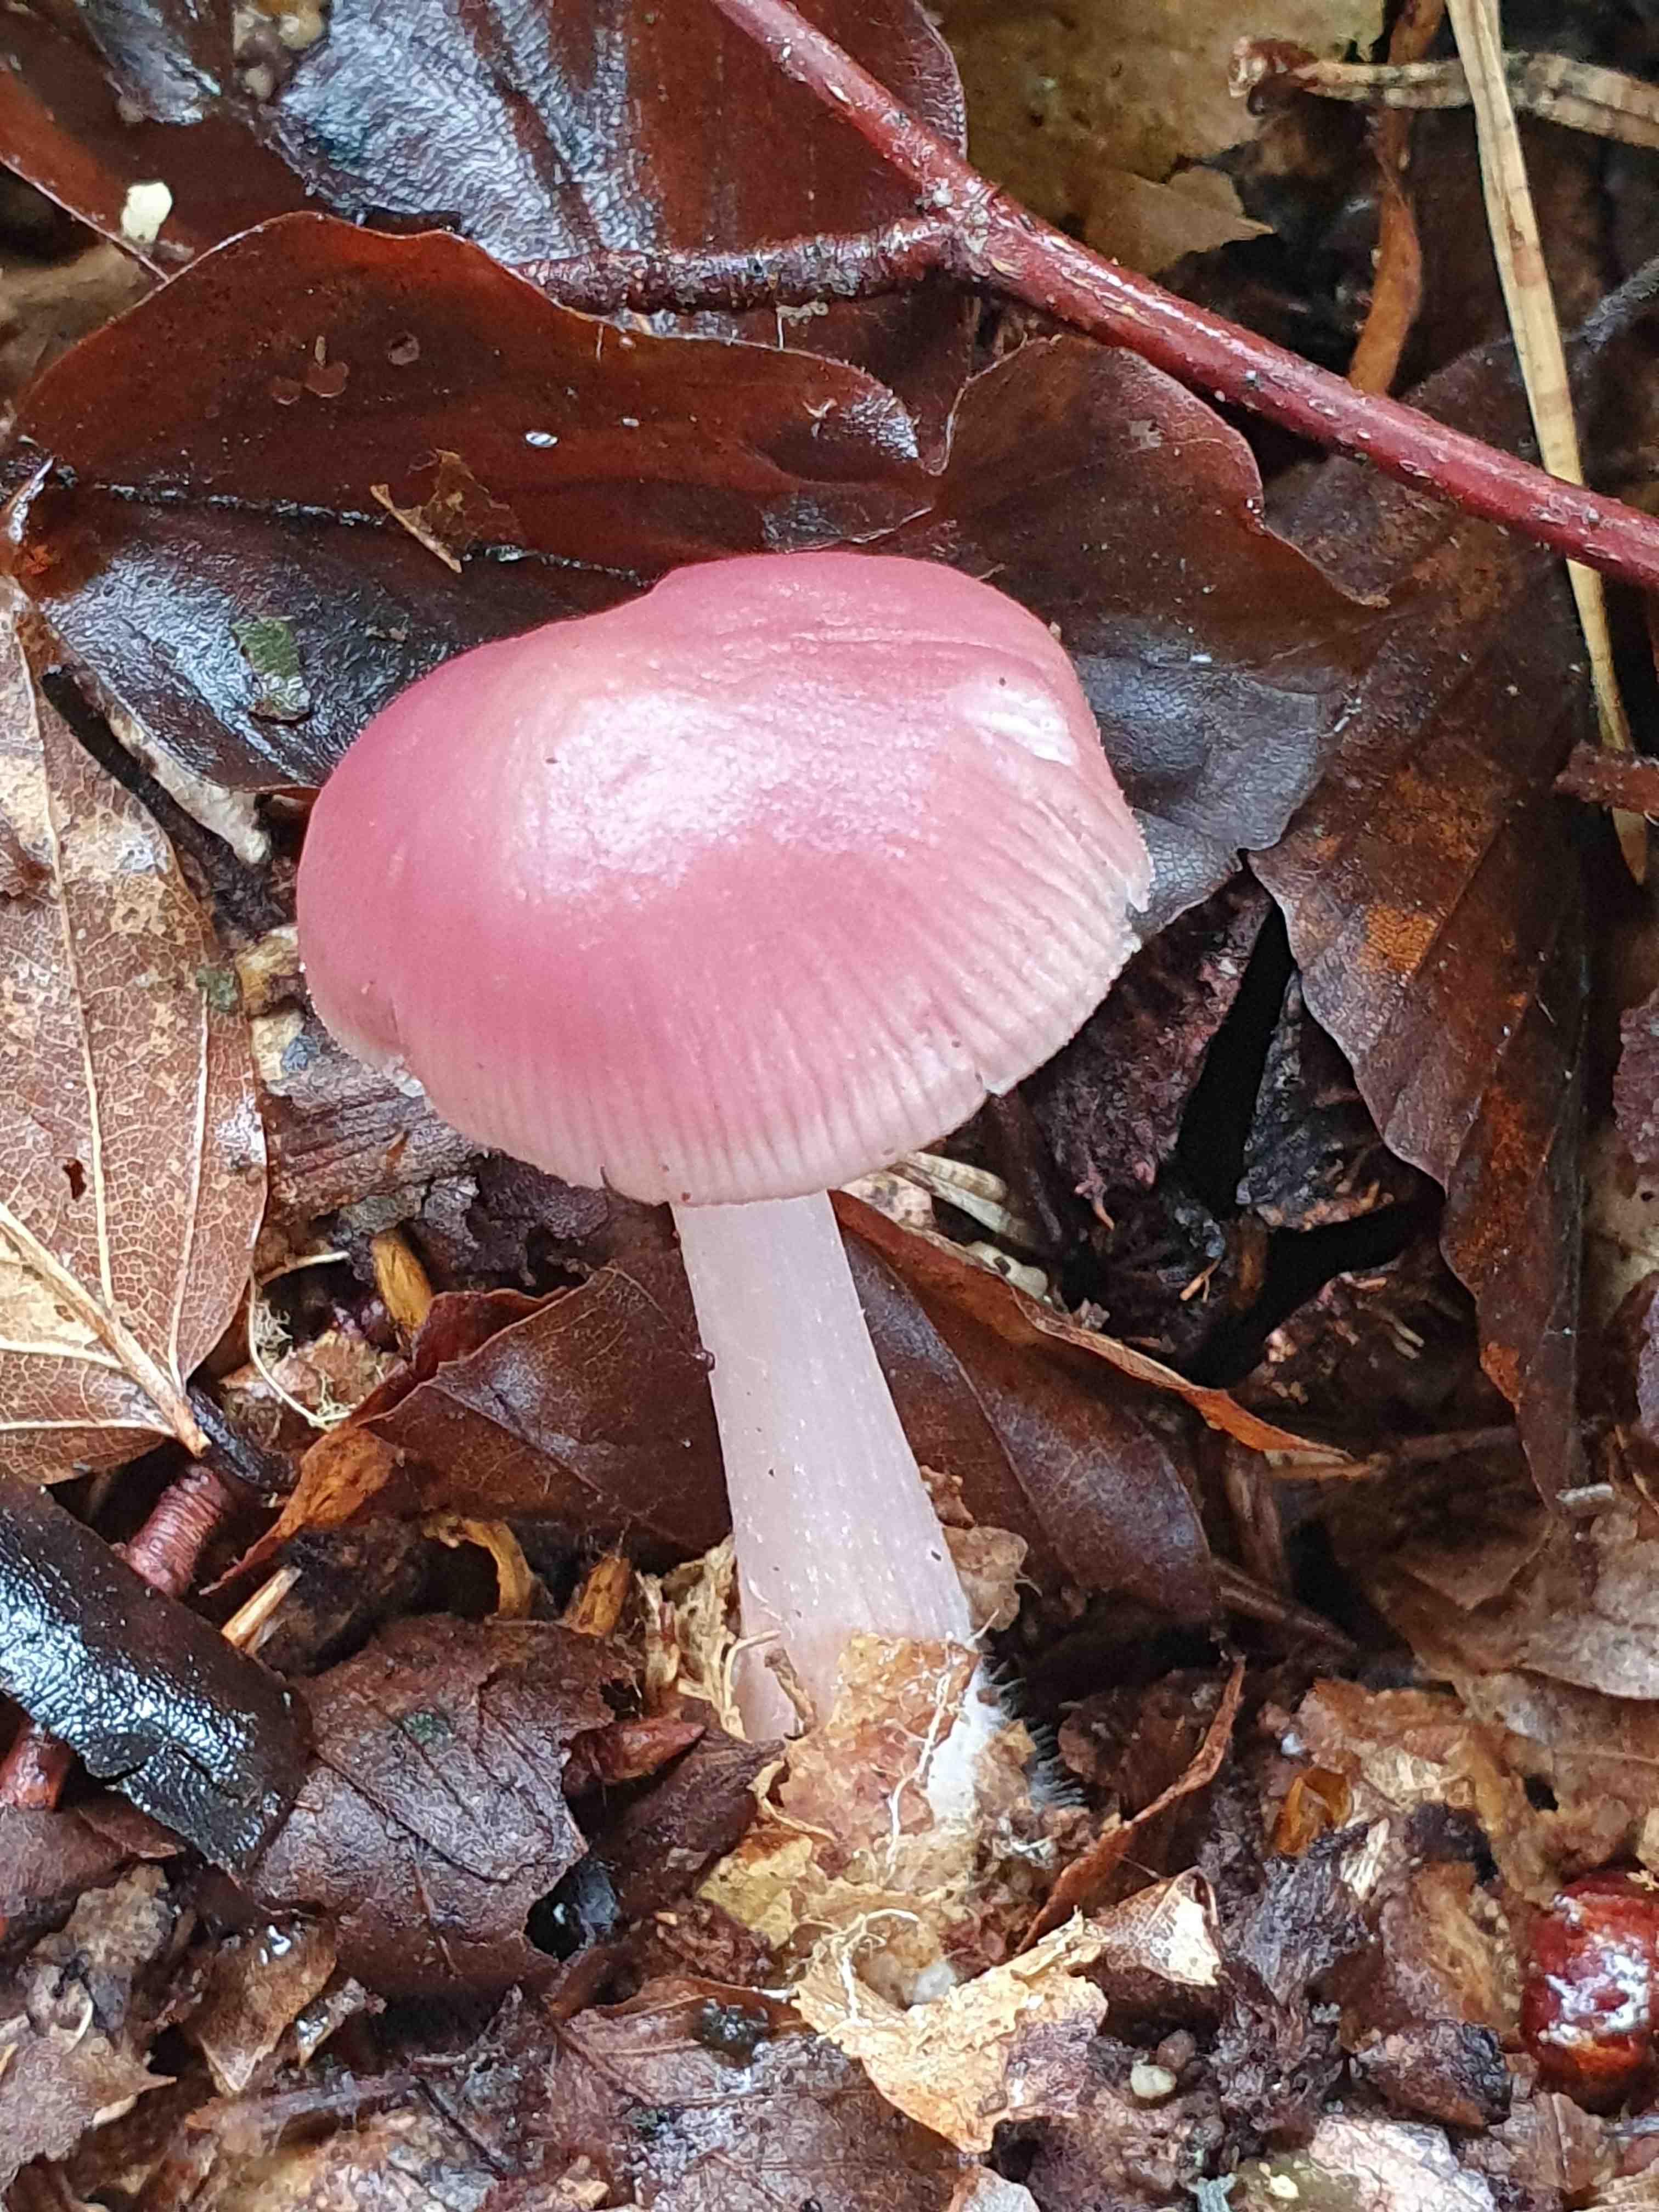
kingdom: Fungi
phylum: Basidiomycota
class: Agaricomycetes
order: Agaricales
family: Mycenaceae
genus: Mycena
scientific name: Mycena rosea
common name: rosa huesvamp
